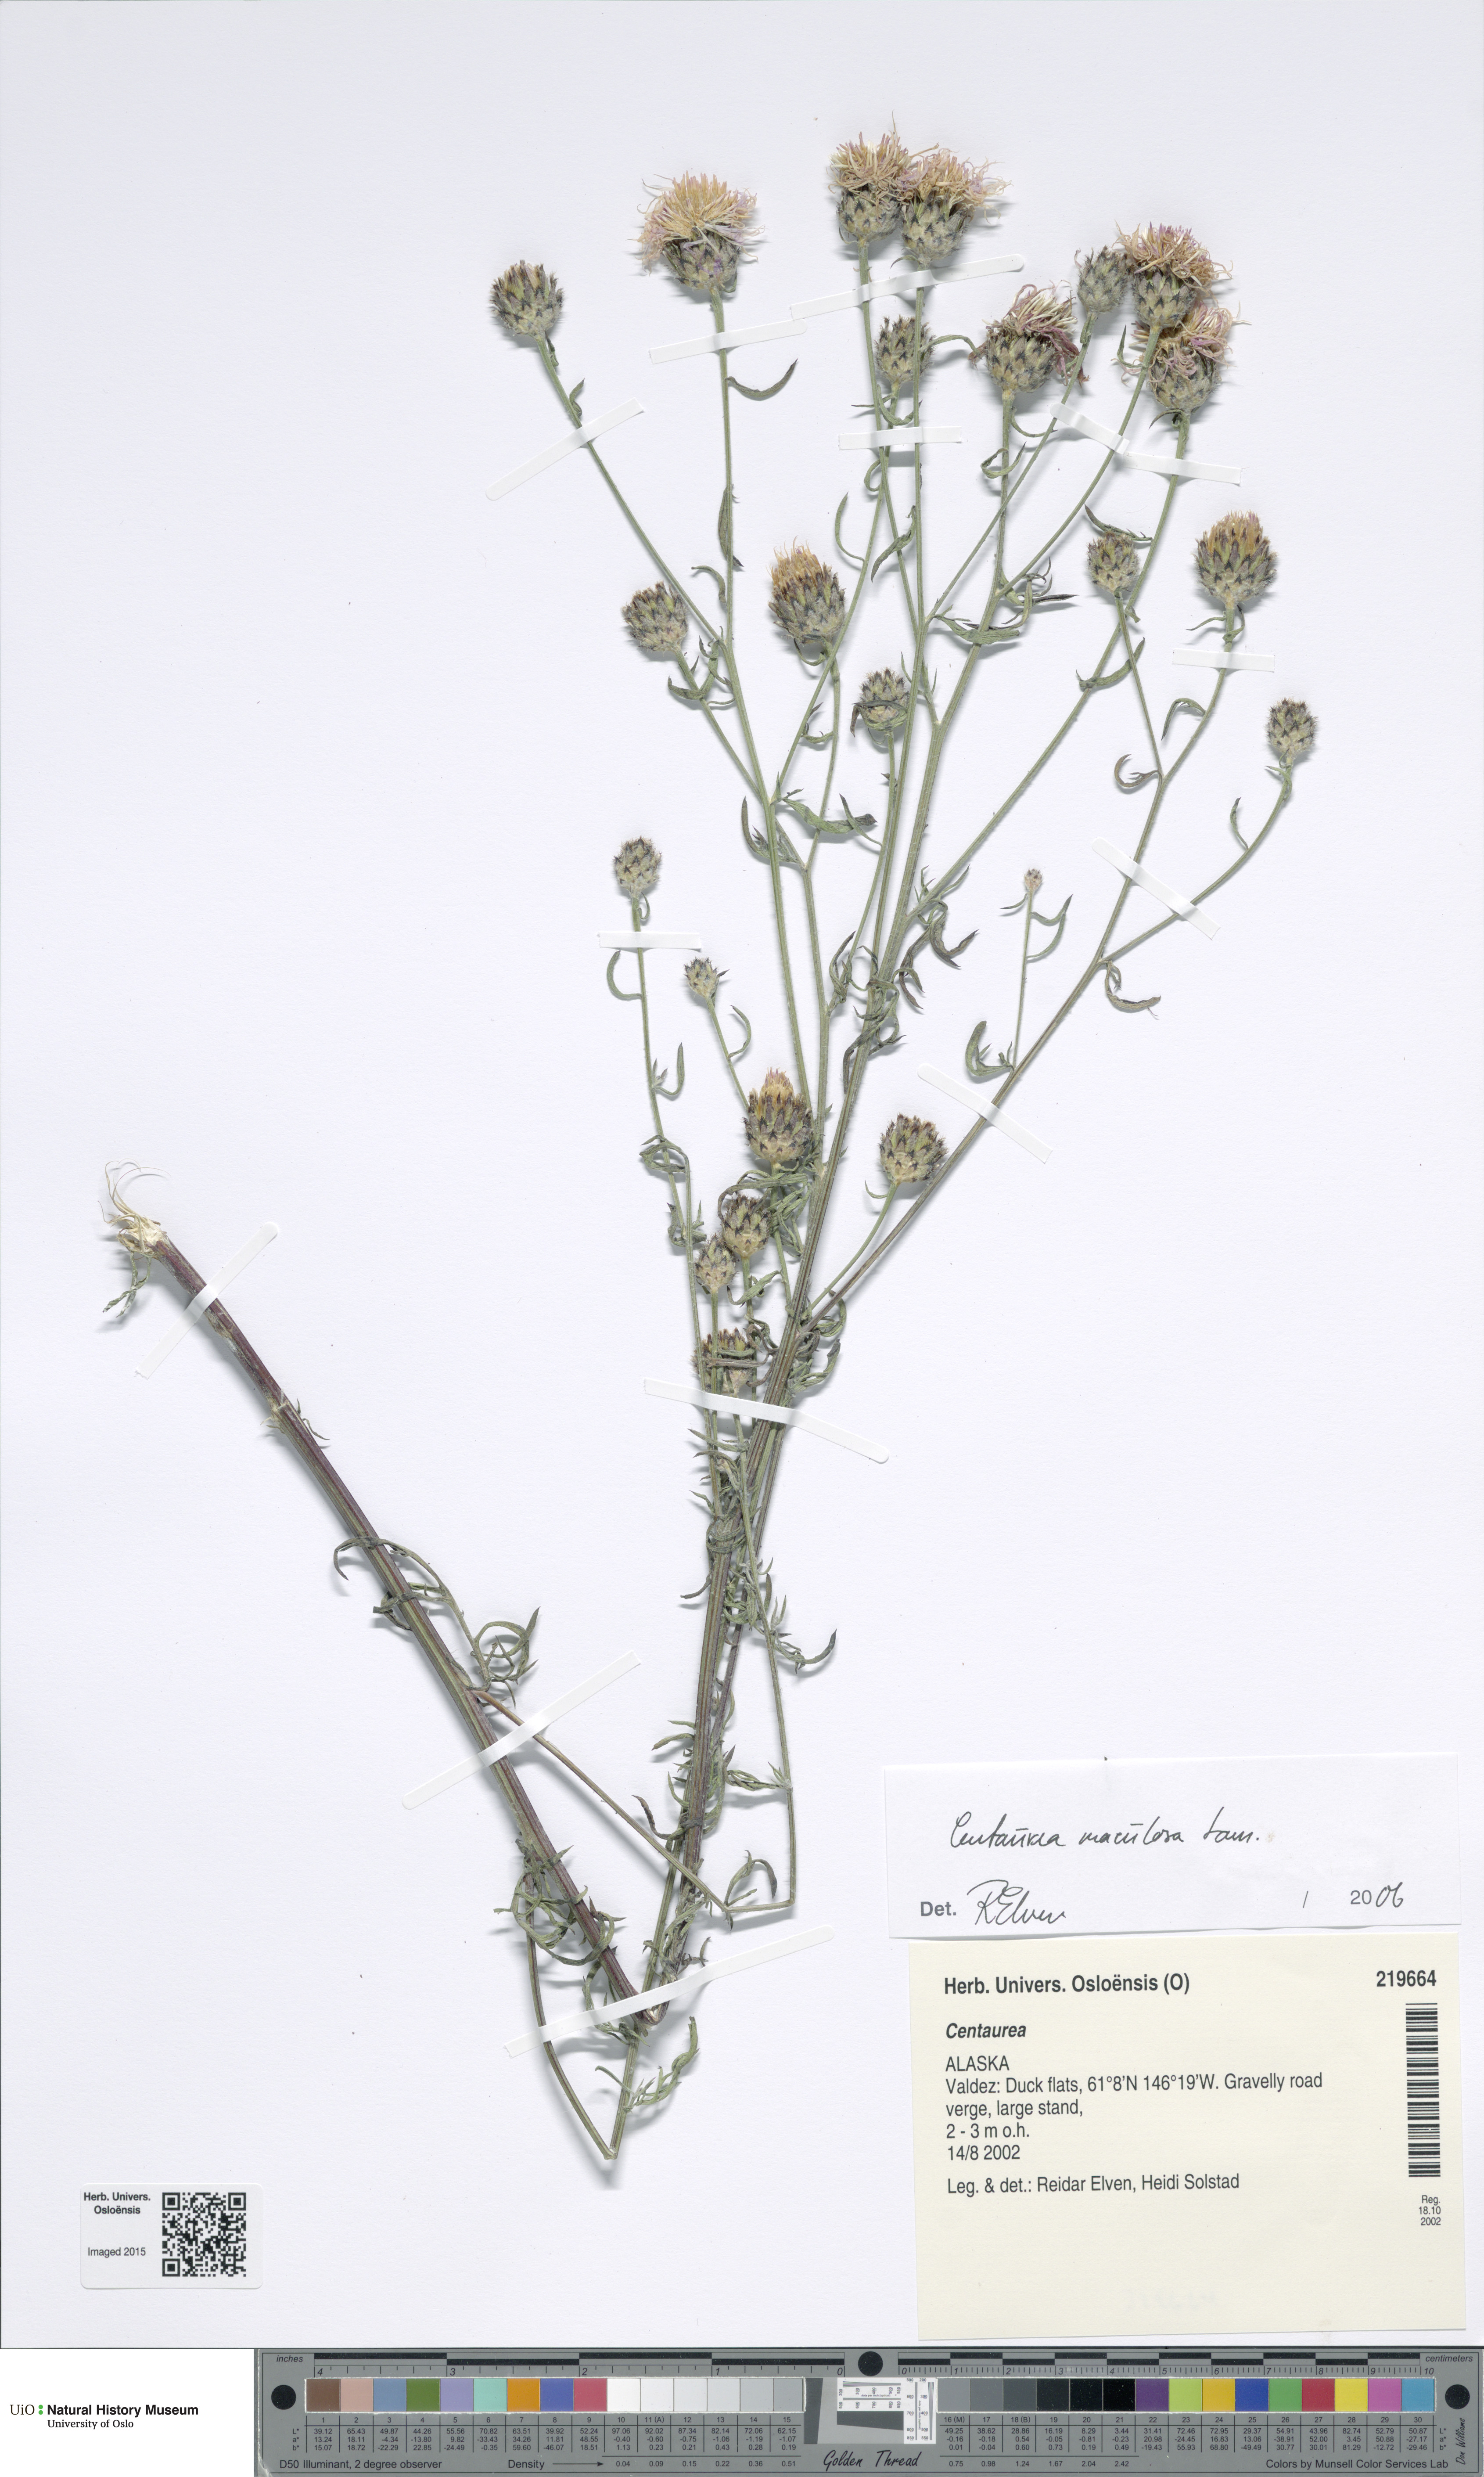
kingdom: Plantae
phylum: Tracheophyta
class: Magnoliopsida
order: Asterales
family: Asteraceae
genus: Centaurea
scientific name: Centaurea
